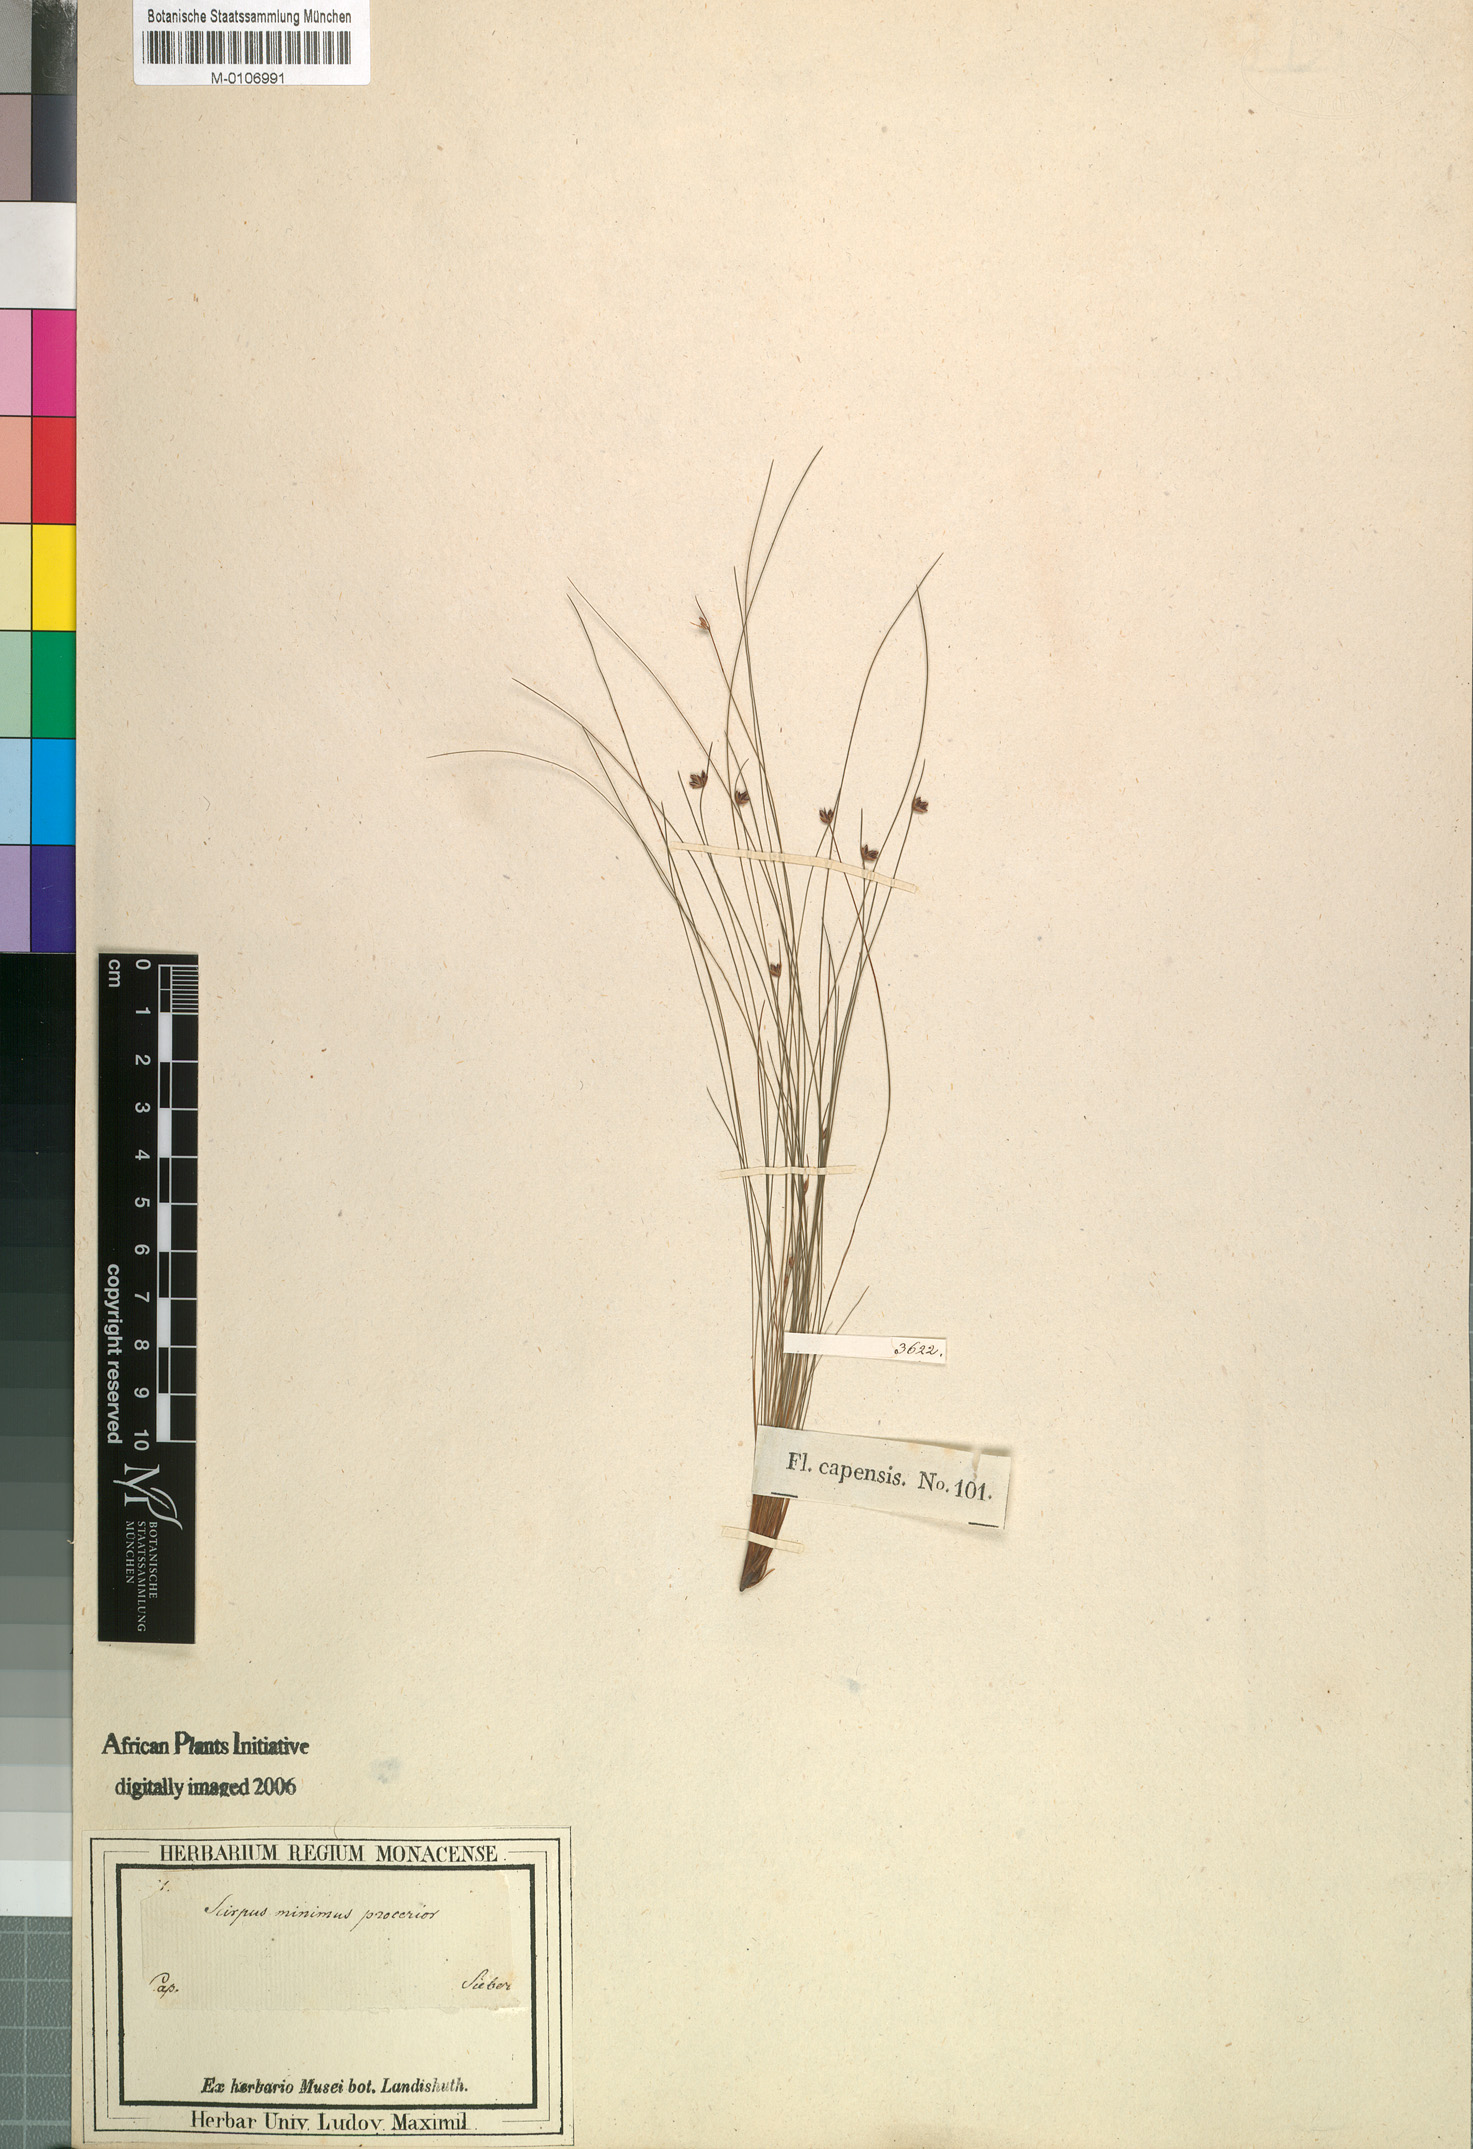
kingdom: Plantae
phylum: Tracheophyta
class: Liliopsida
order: Poales
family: Cyperaceae
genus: Ficinia
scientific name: Ficinia filiformis
